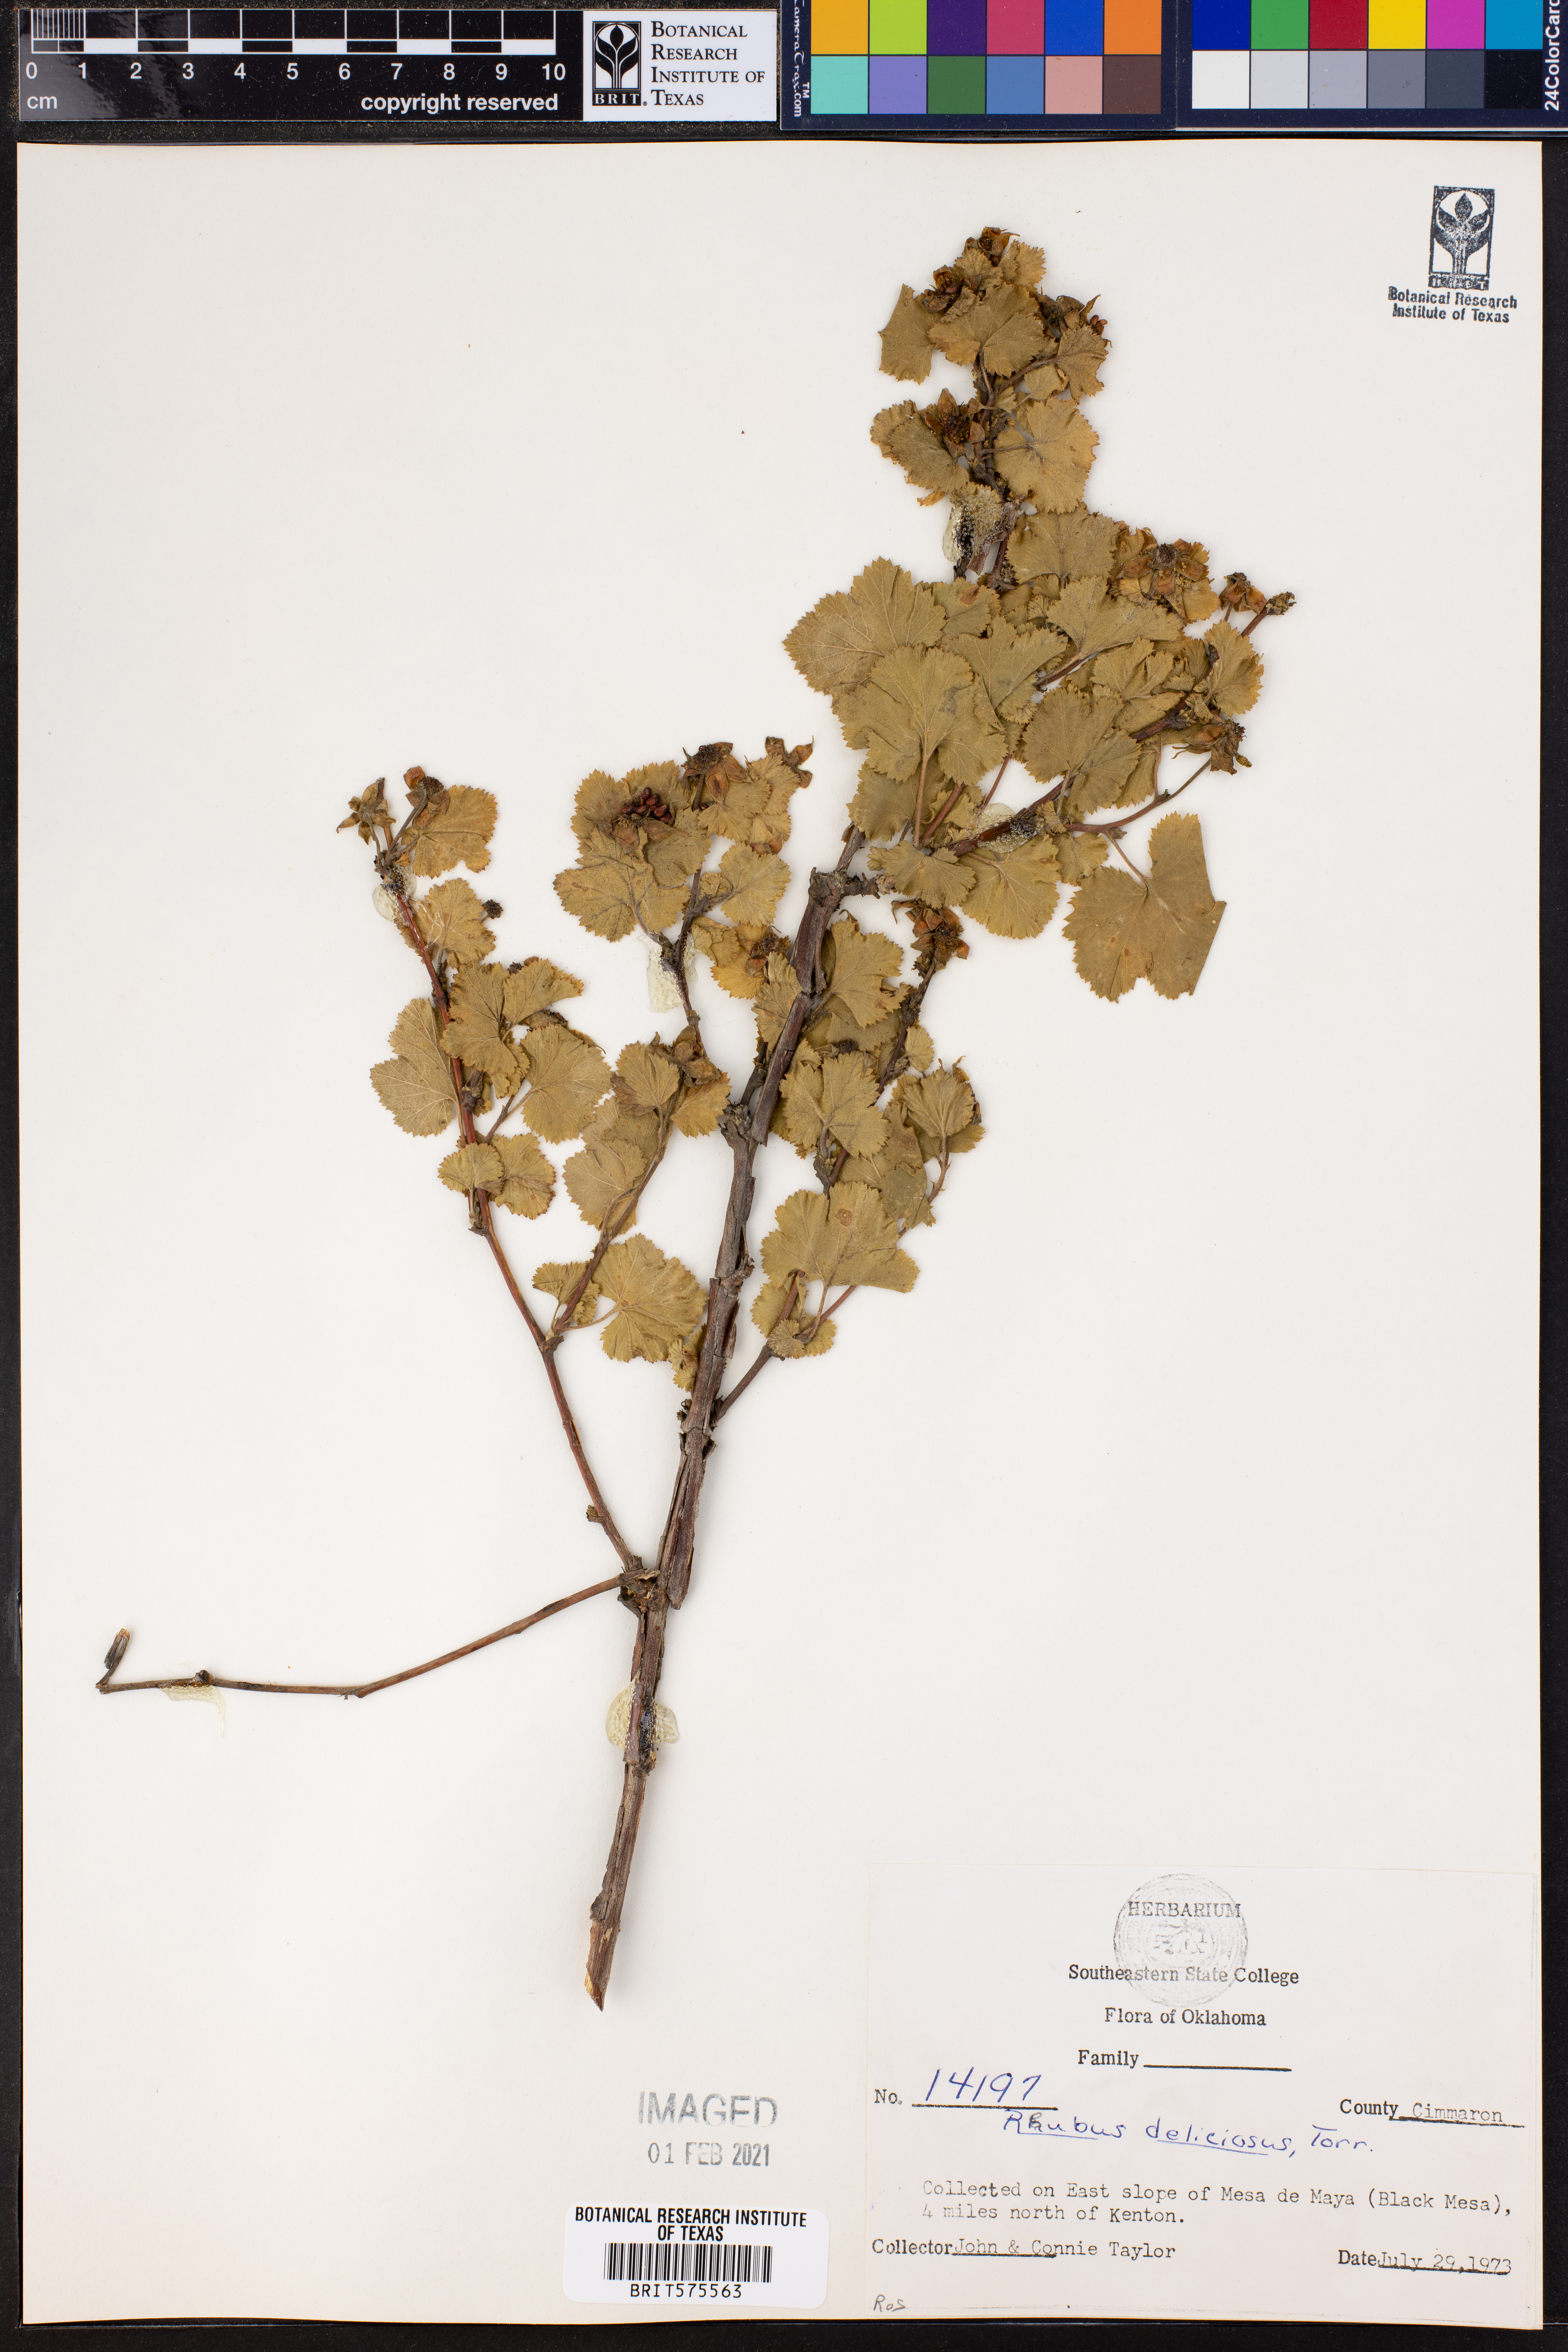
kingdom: Plantae
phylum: Tracheophyta
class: Magnoliopsida
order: Rosales
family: Rosaceae
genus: Rubus
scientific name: Rubus deliciosus
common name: Rocky mountain raspberry
